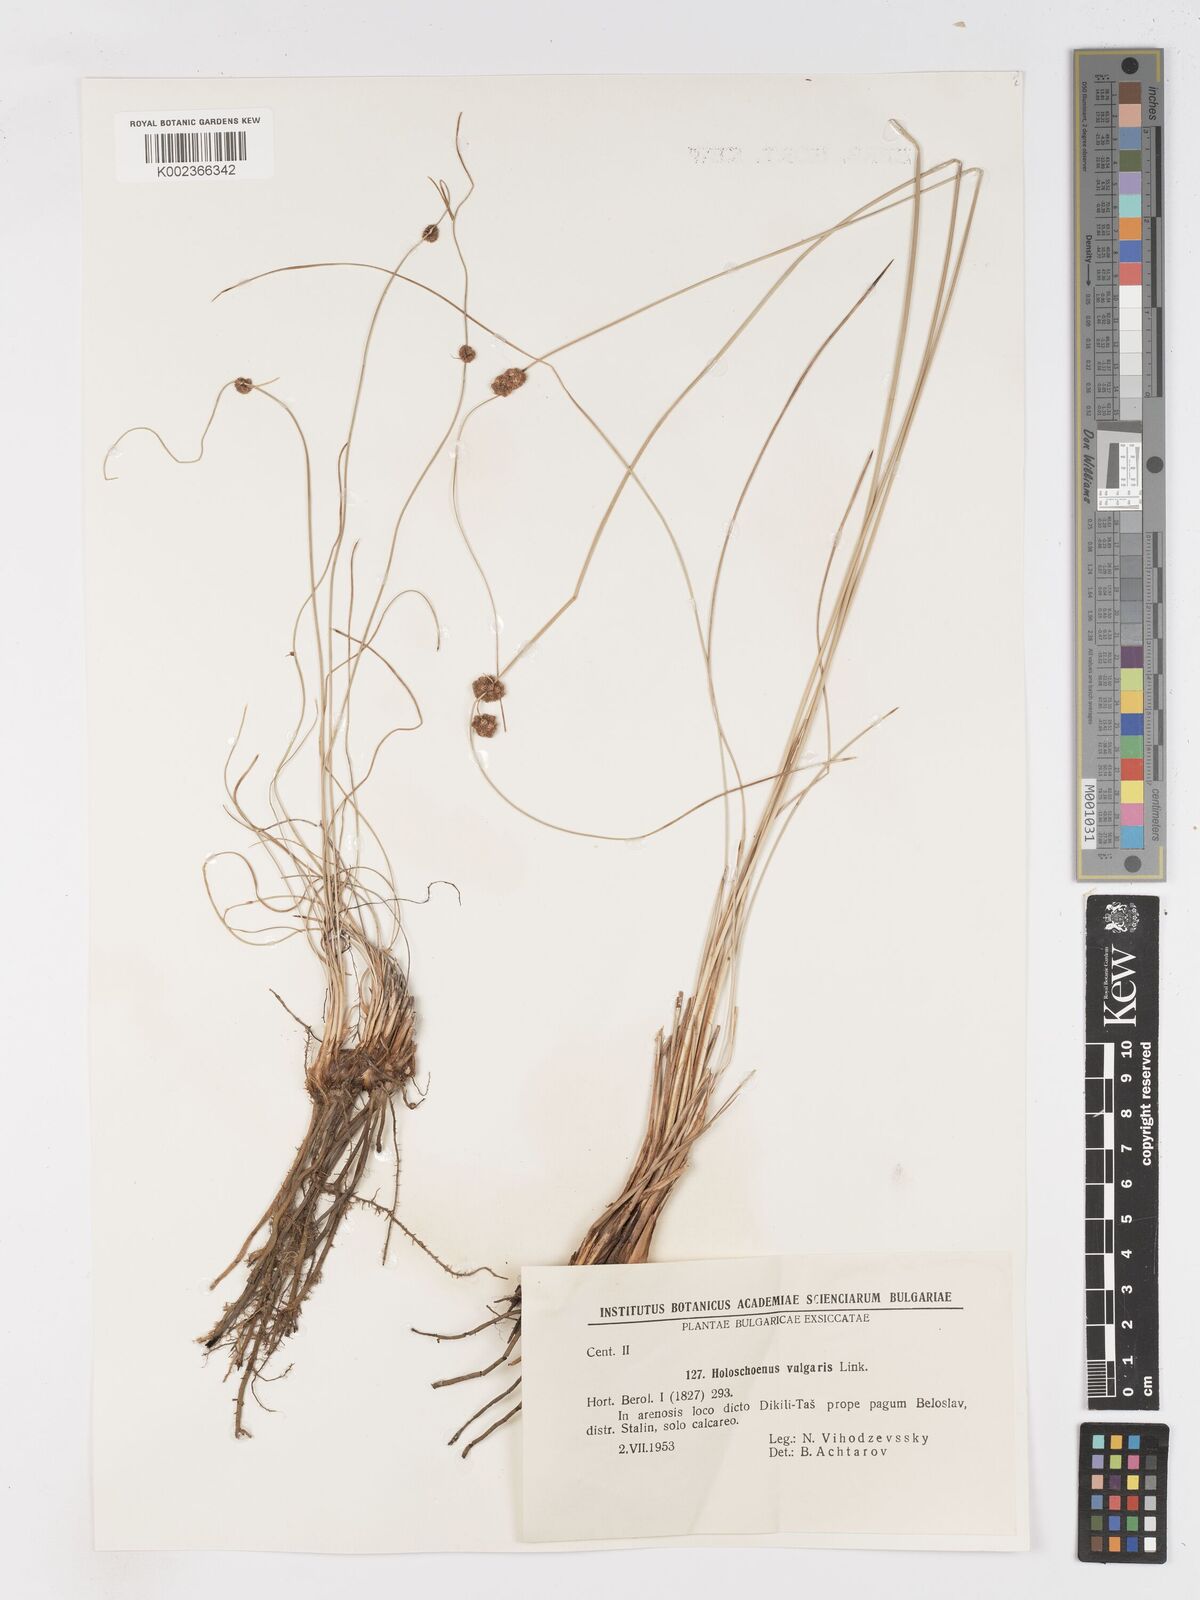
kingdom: Plantae
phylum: Tracheophyta
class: Liliopsida
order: Poales
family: Cyperaceae
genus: Scirpoides
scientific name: Scirpoides holoschoenus
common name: Round-headed club-rush
